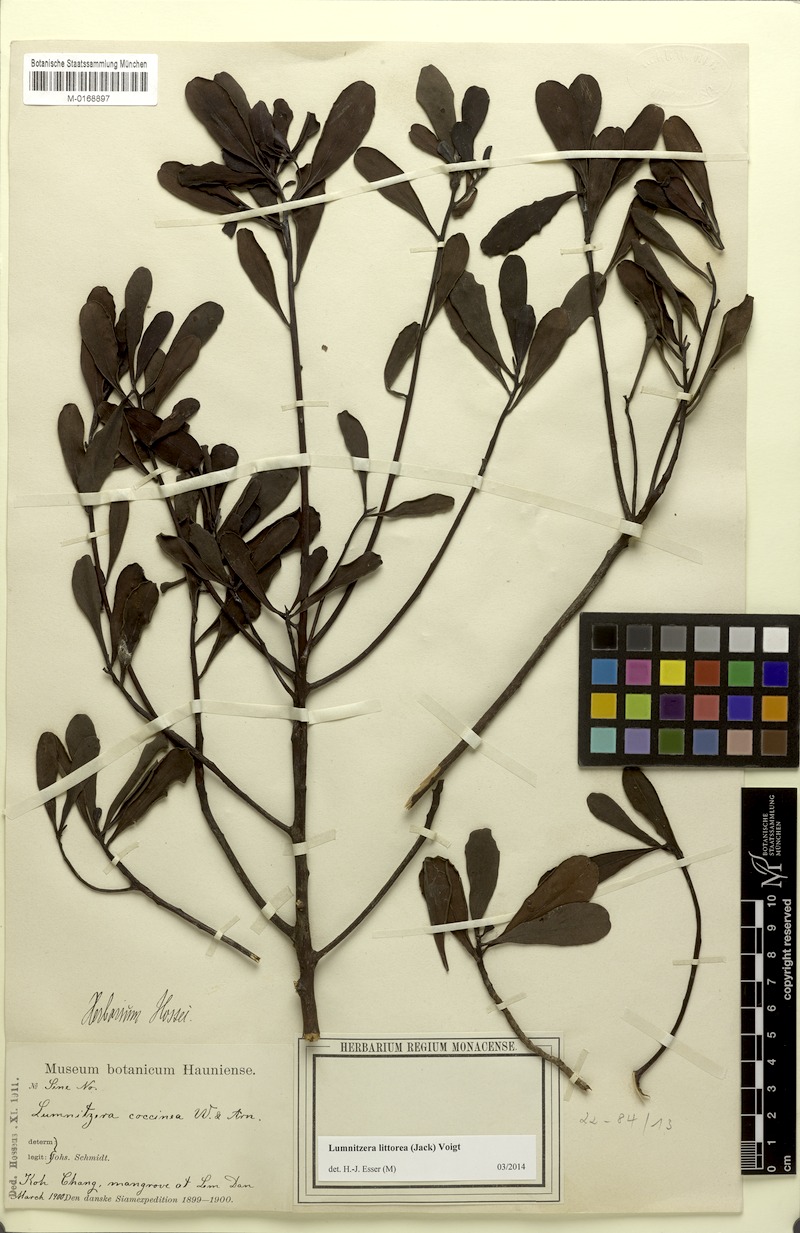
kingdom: Plantae
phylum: Tracheophyta
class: Magnoliopsida
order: Myrtales
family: Combretaceae
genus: Lumnitzera
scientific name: Lumnitzera littorea
